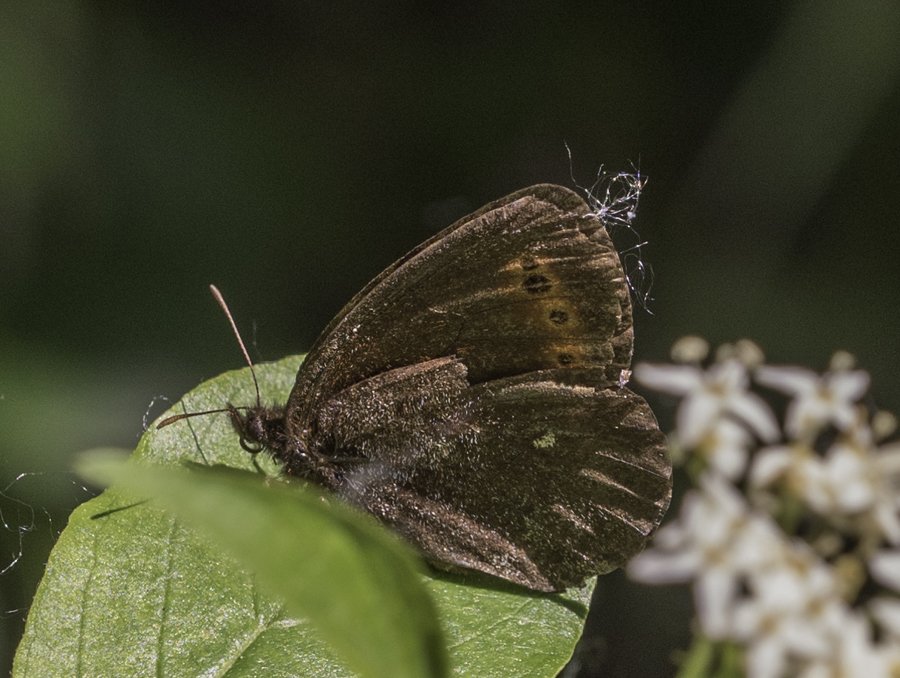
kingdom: Animalia
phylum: Arthropoda
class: Insecta
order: Lepidoptera
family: Nymphalidae
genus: Erebia
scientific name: Erebia disa
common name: Taiga Alpine
